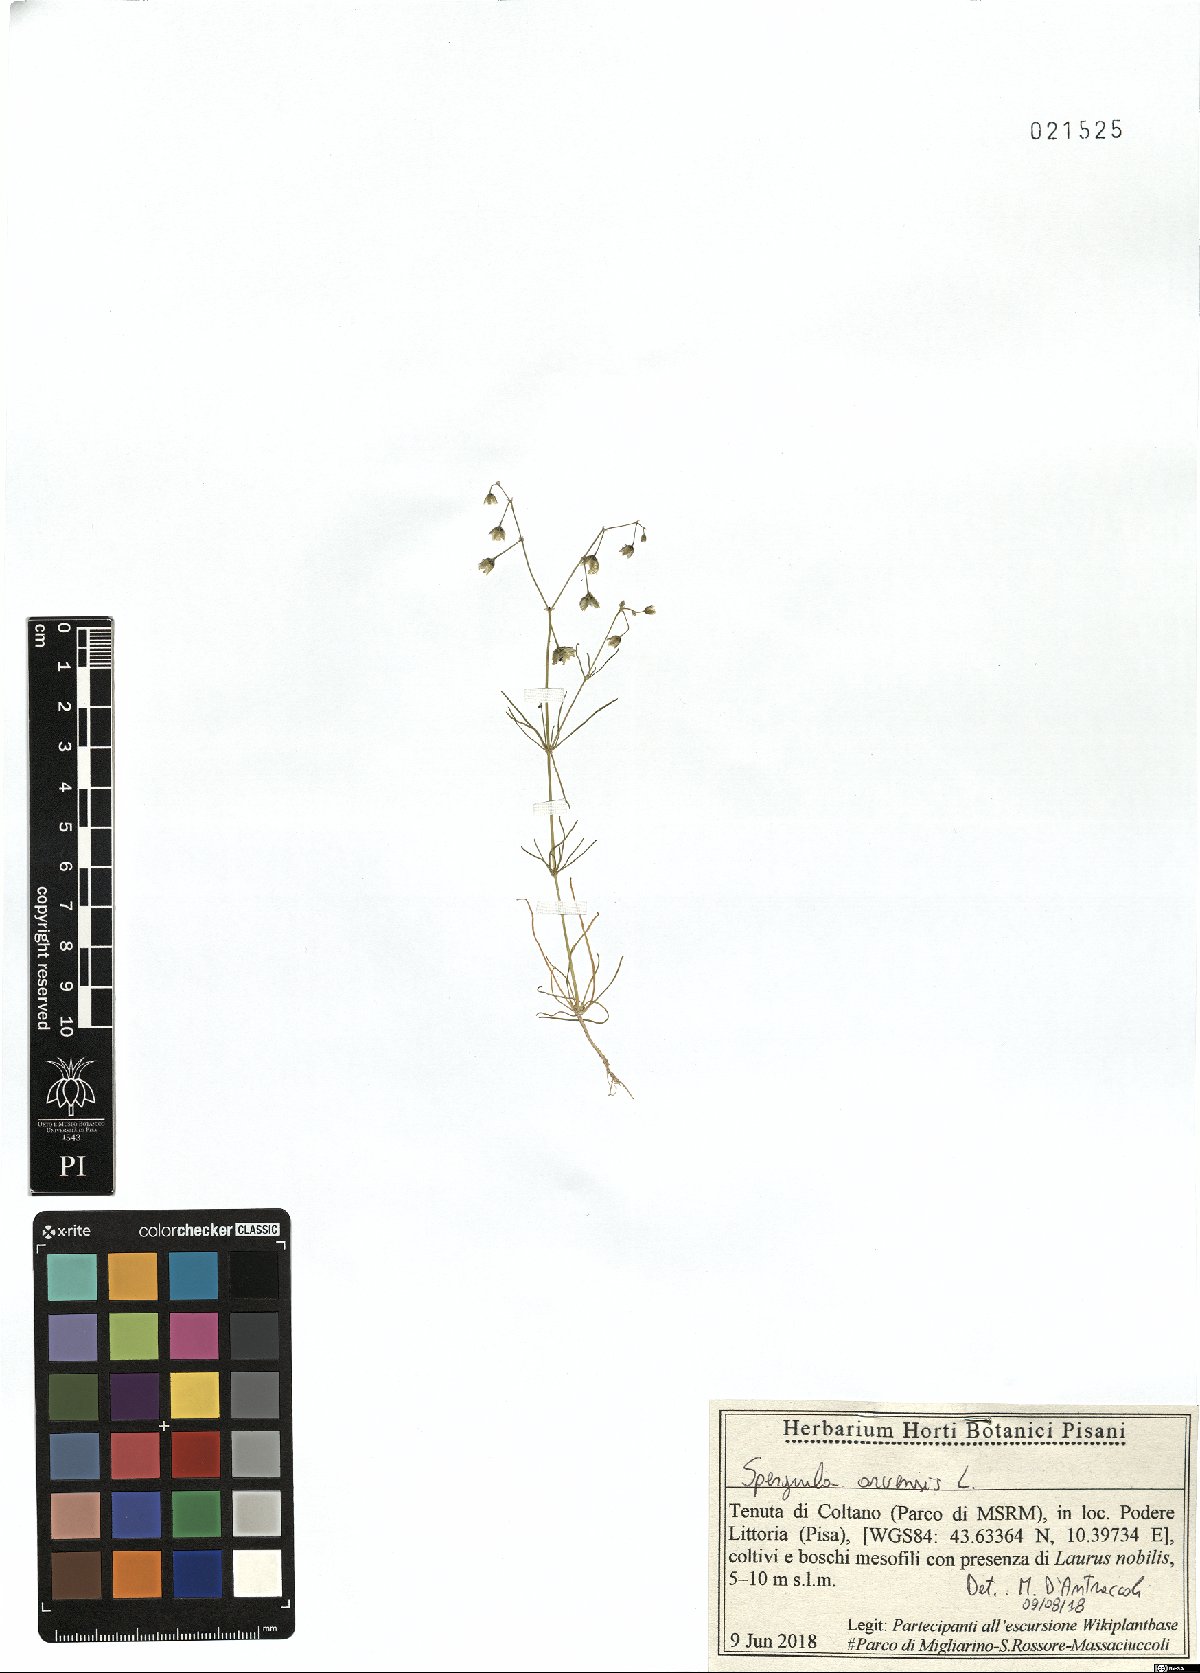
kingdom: Plantae
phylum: Tracheophyta
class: Magnoliopsida
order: Caryophyllales
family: Caryophyllaceae
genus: Spergula
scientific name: Spergula arvensis
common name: Corn spurrey
